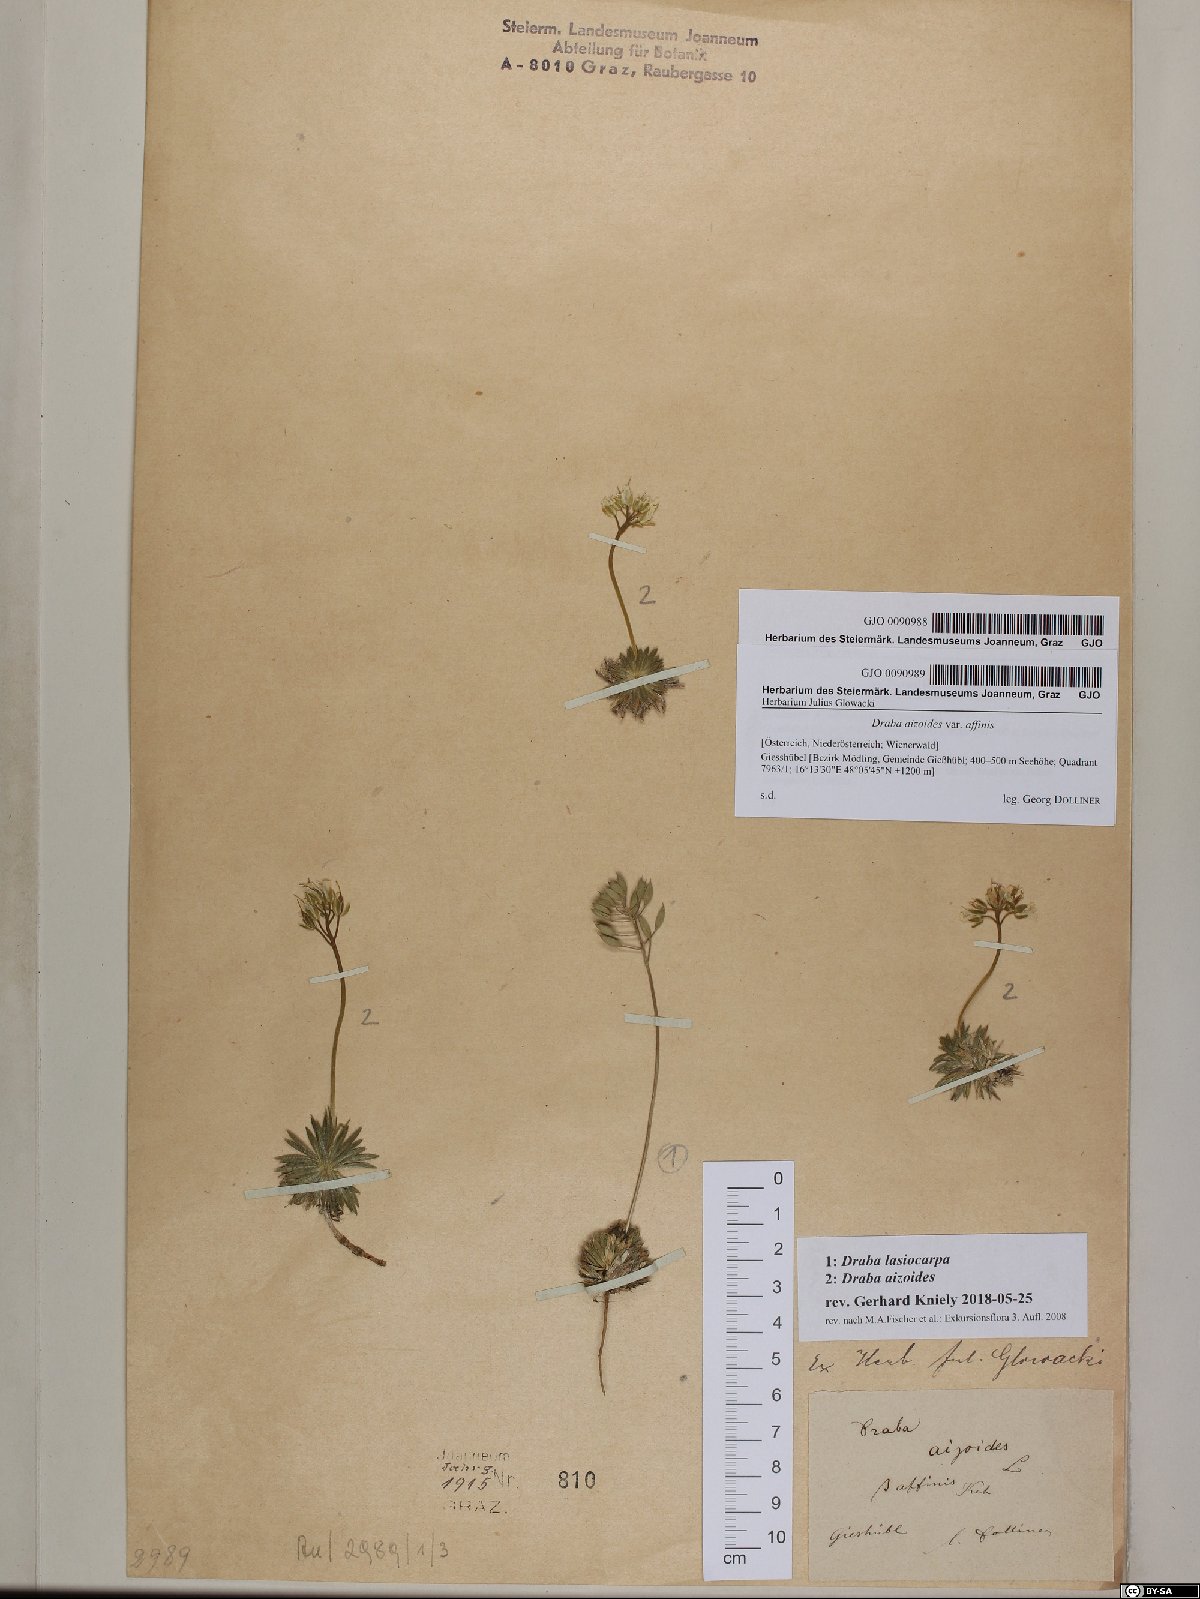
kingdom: Plantae
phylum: Tracheophyta
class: Magnoliopsida
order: Brassicales
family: Brassicaceae
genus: Draba
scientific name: Draba lasiocarpa
